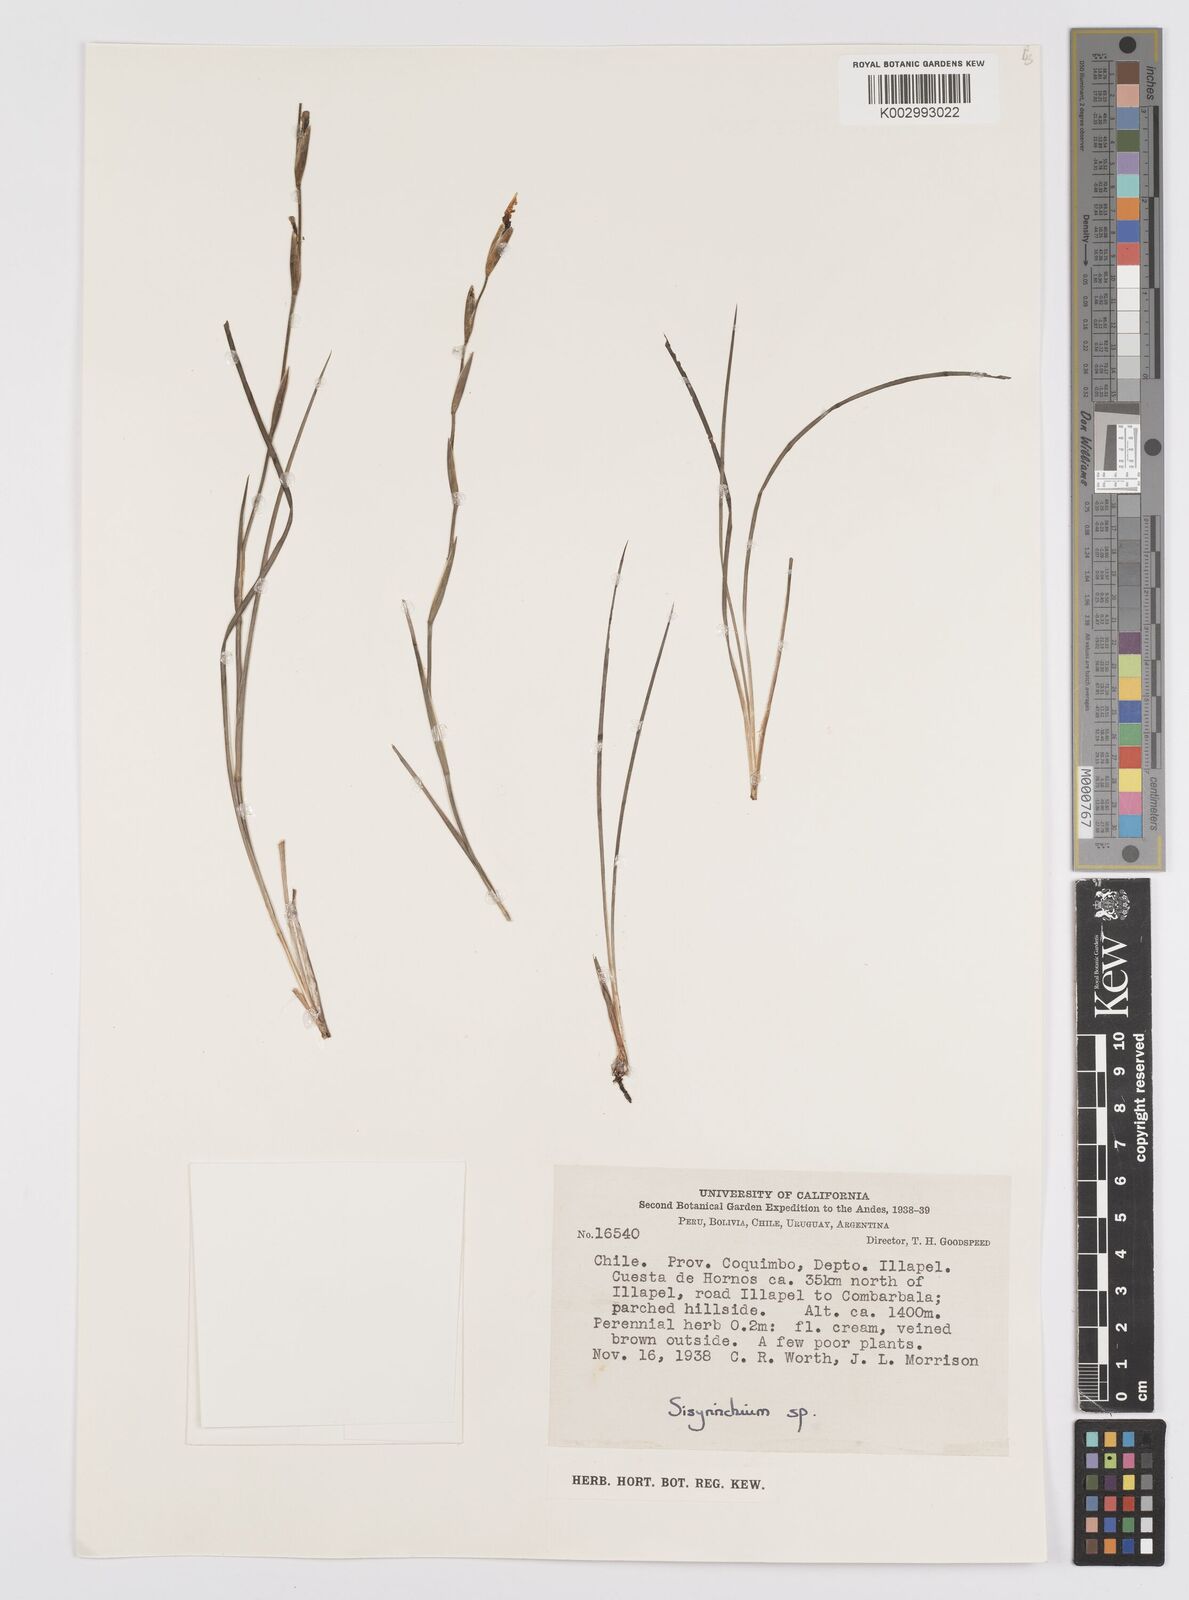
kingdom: Plantae
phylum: Tracheophyta
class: Liliopsida
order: Asparagales
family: Iridaceae
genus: Sisyrinchium
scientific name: Sisyrinchium
